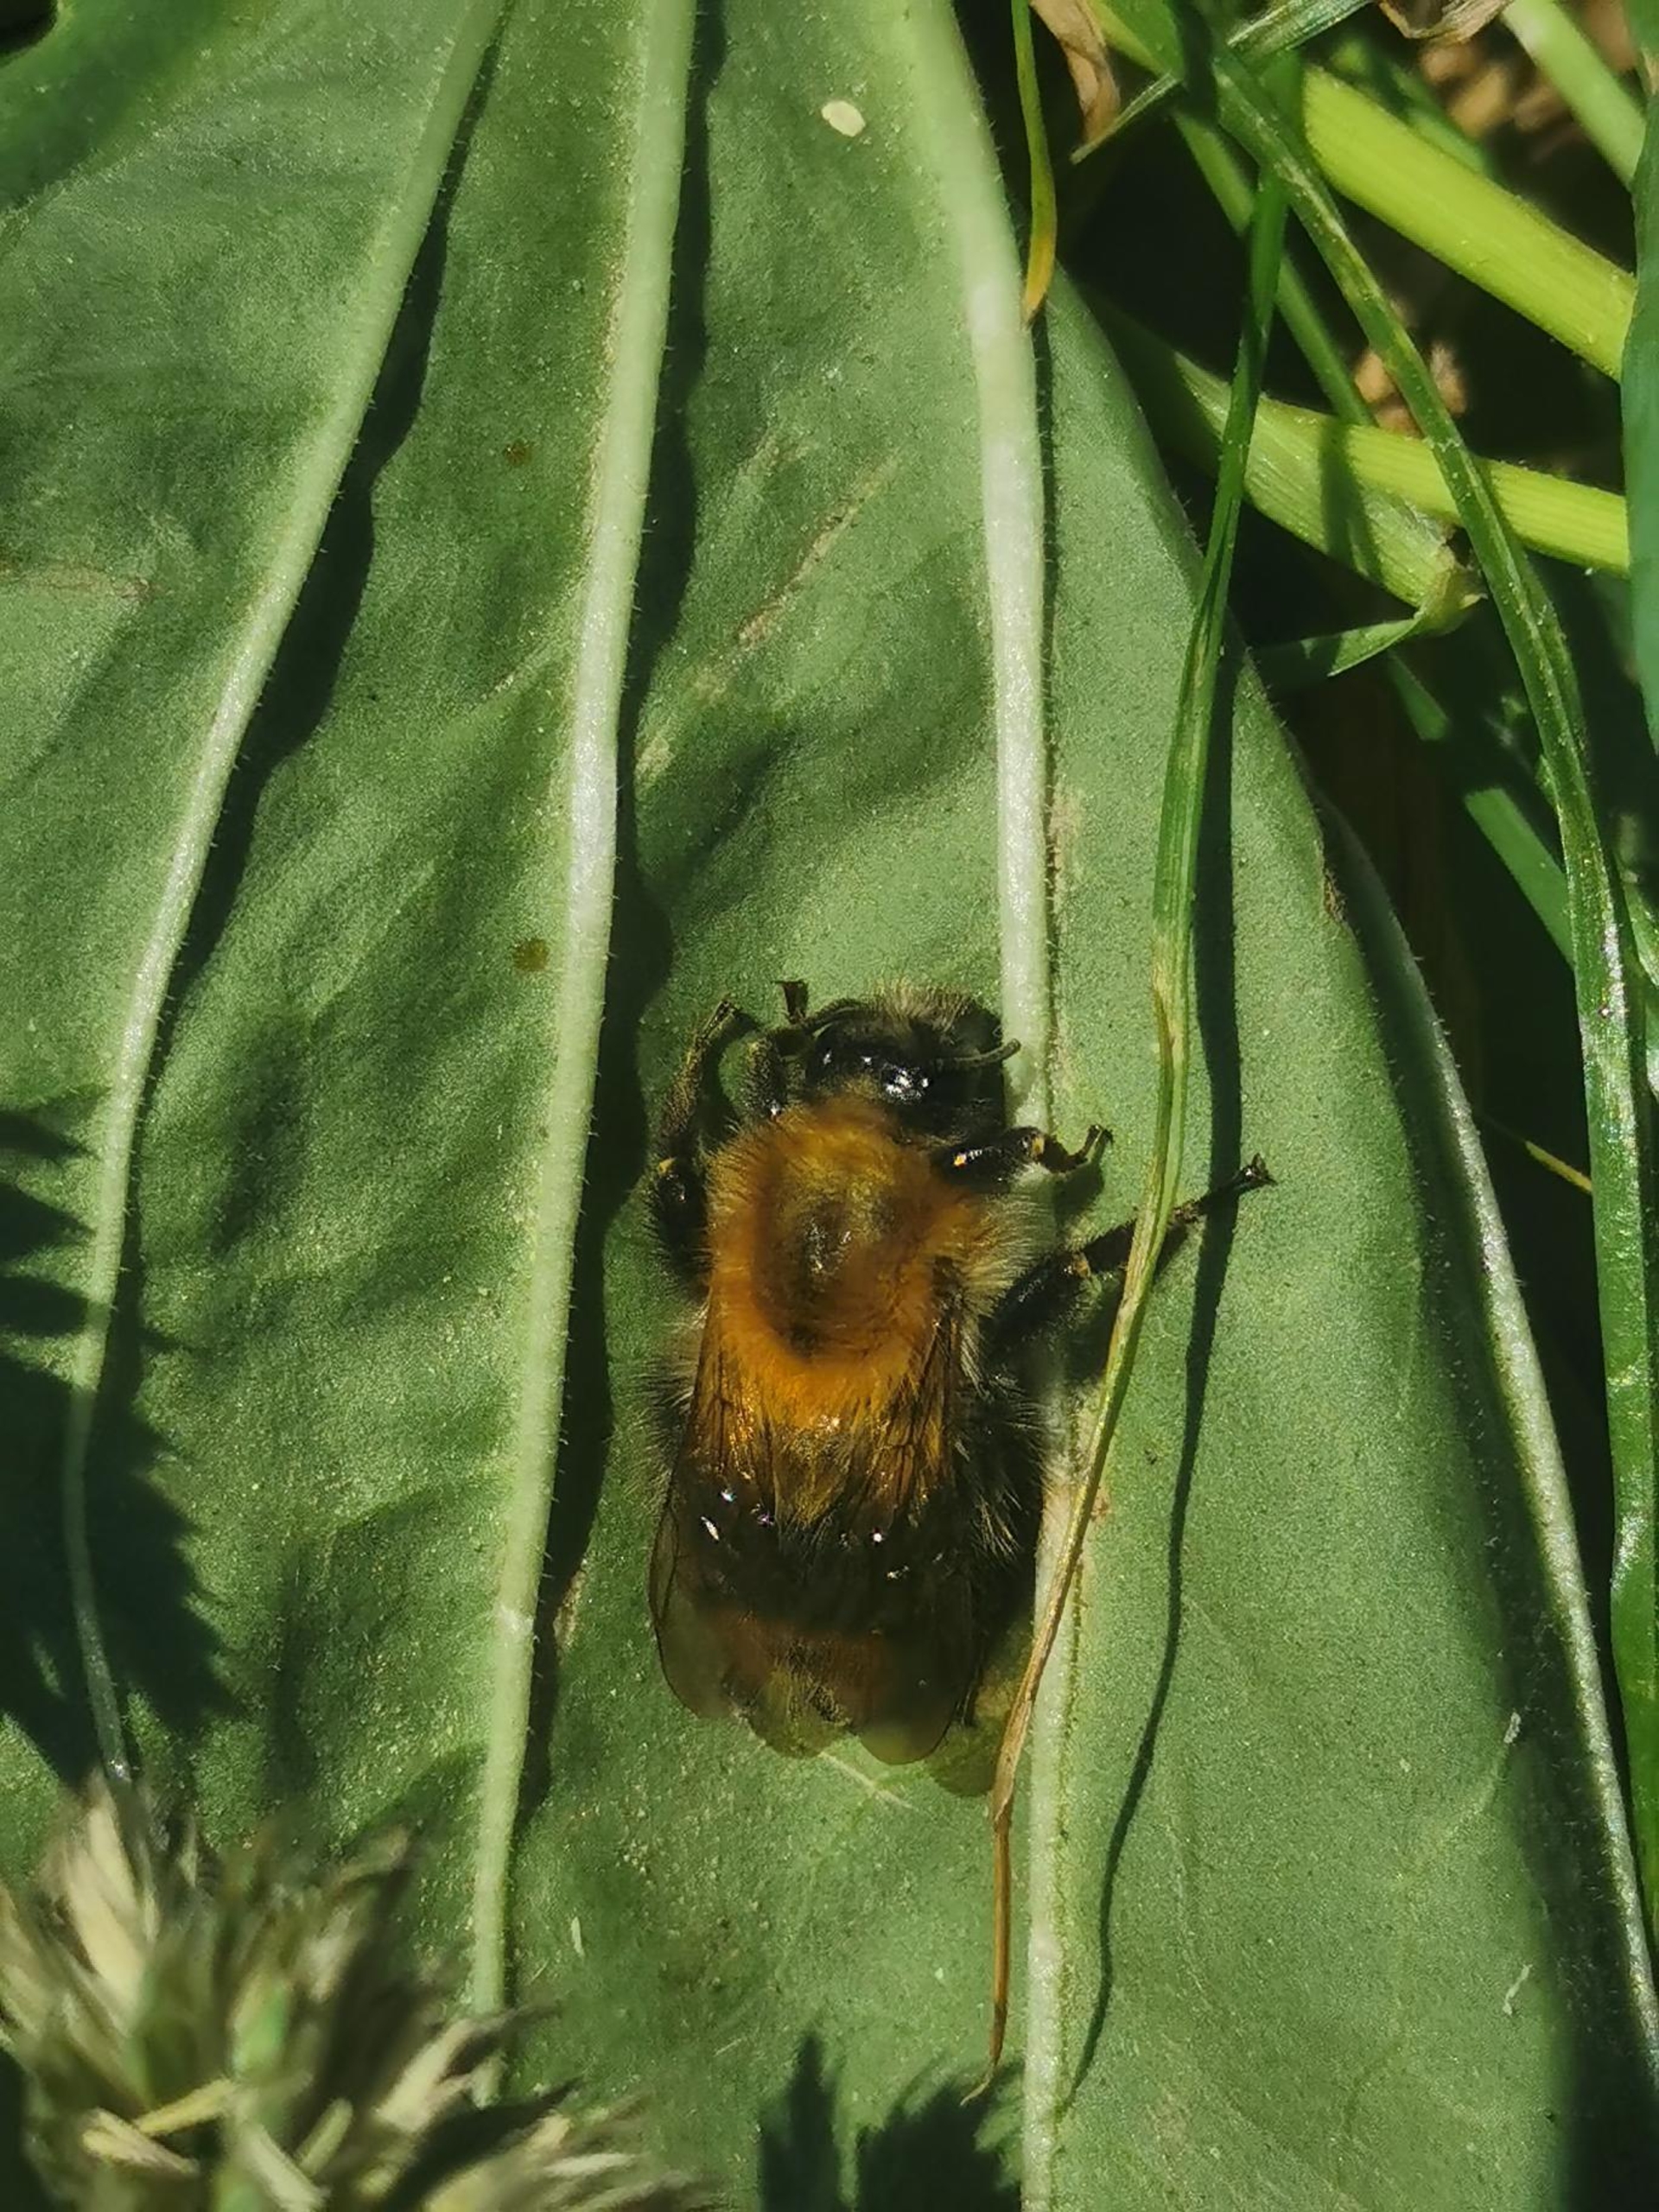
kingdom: Animalia
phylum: Arthropoda
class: Insecta
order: Hymenoptera
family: Apidae
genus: Bombus
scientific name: Bombus pascuorum
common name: Agerhumle
